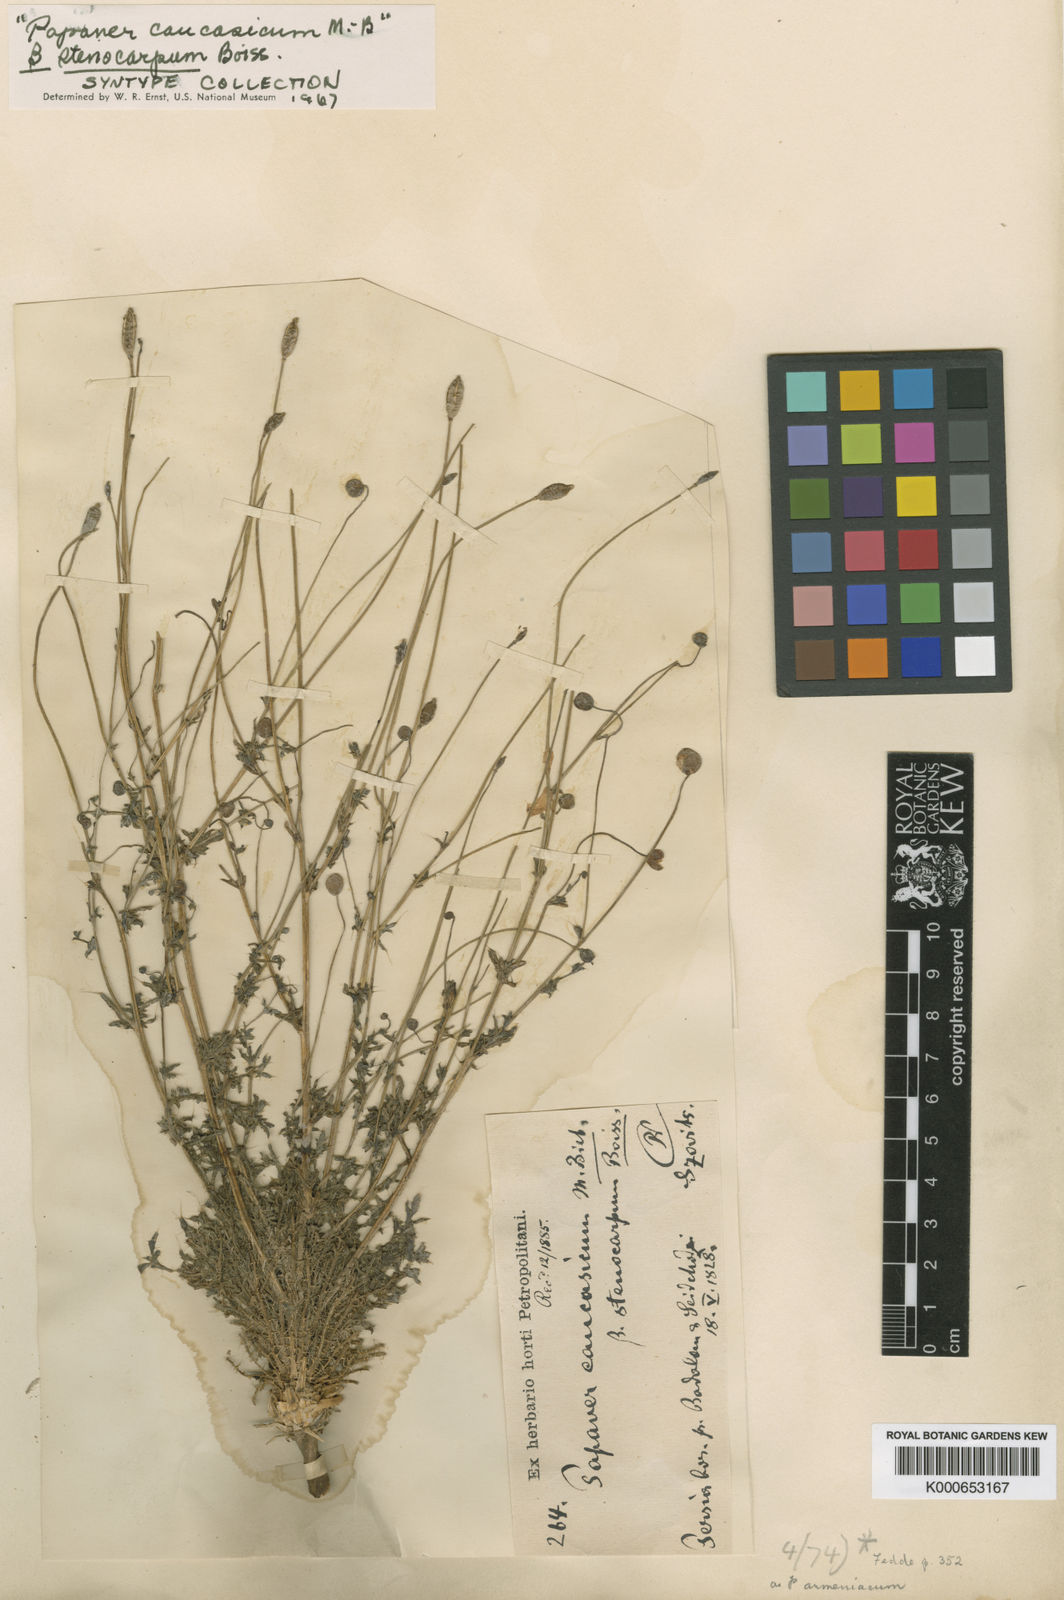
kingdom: Plantae
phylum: Tracheophyta
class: Magnoliopsida
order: Ranunculales
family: Papaveraceae
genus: Papaver
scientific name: Papaver armeniacum
